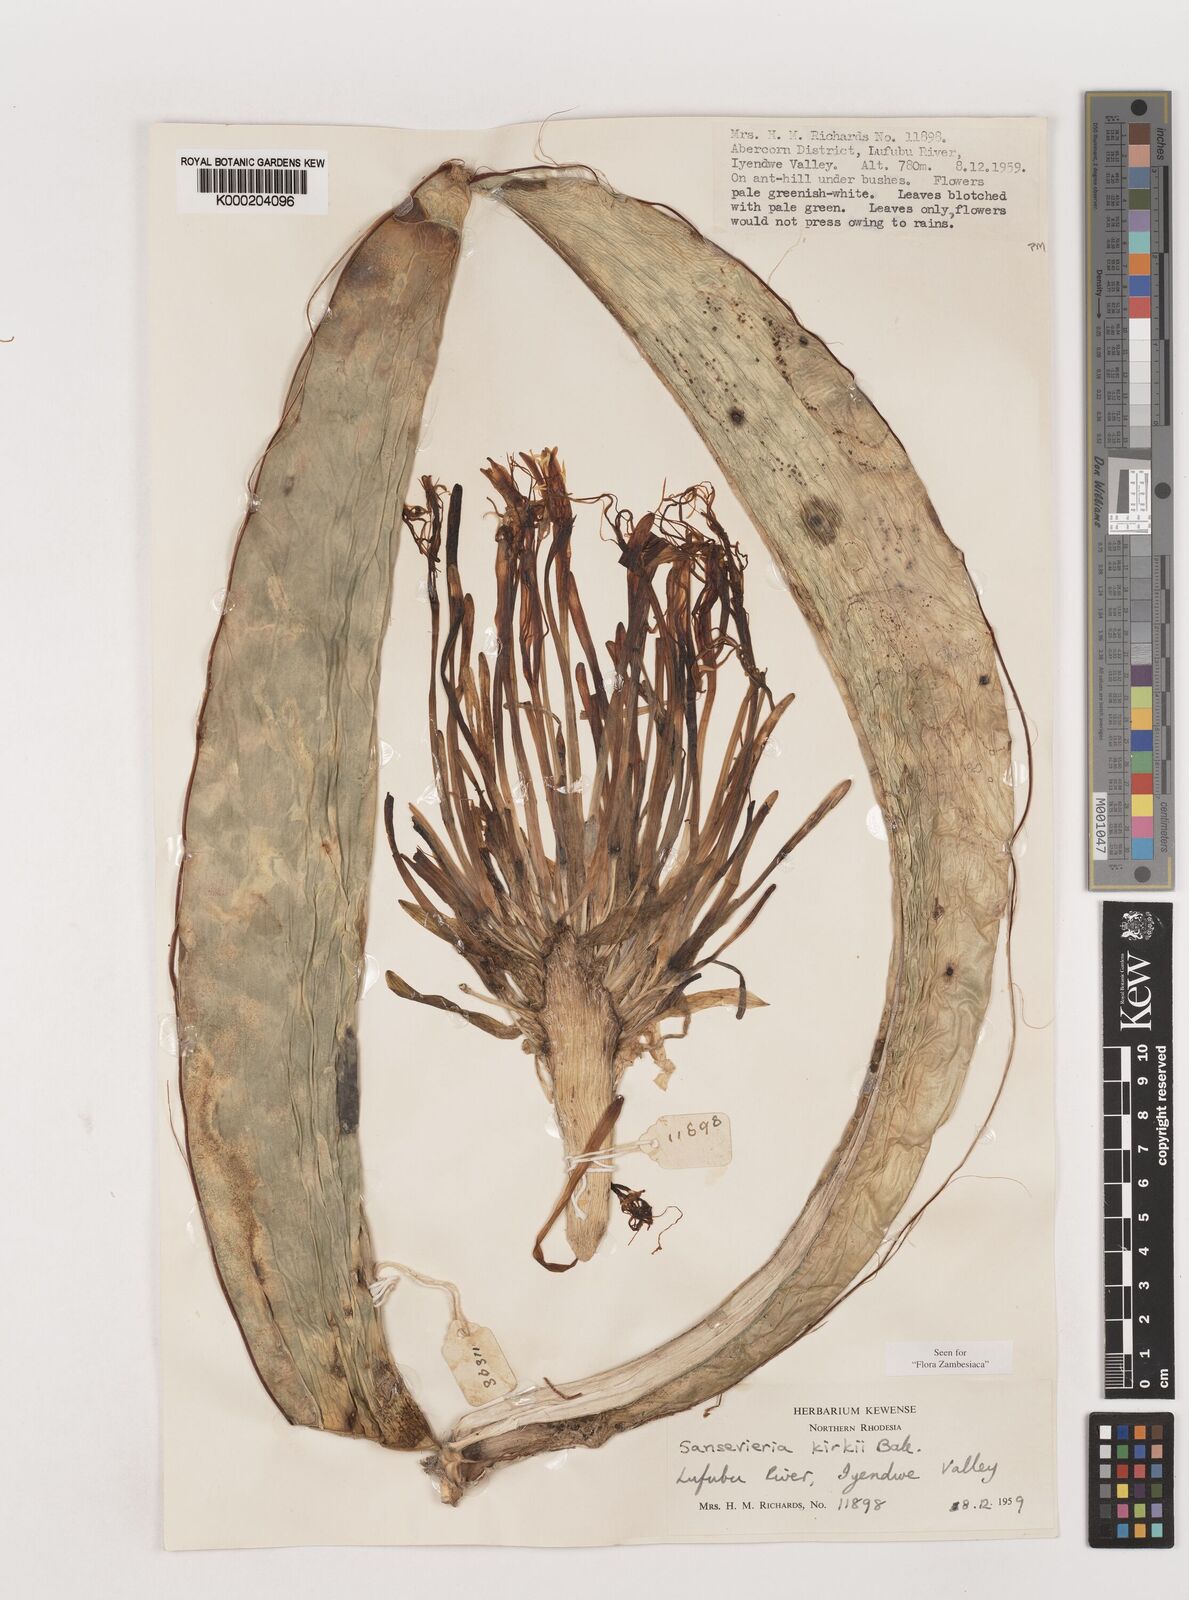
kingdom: Plantae
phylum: Tracheophyta
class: Liliopsida
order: Asparagales
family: Asparagaceae
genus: Dracaena
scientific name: Dracaena pethera
